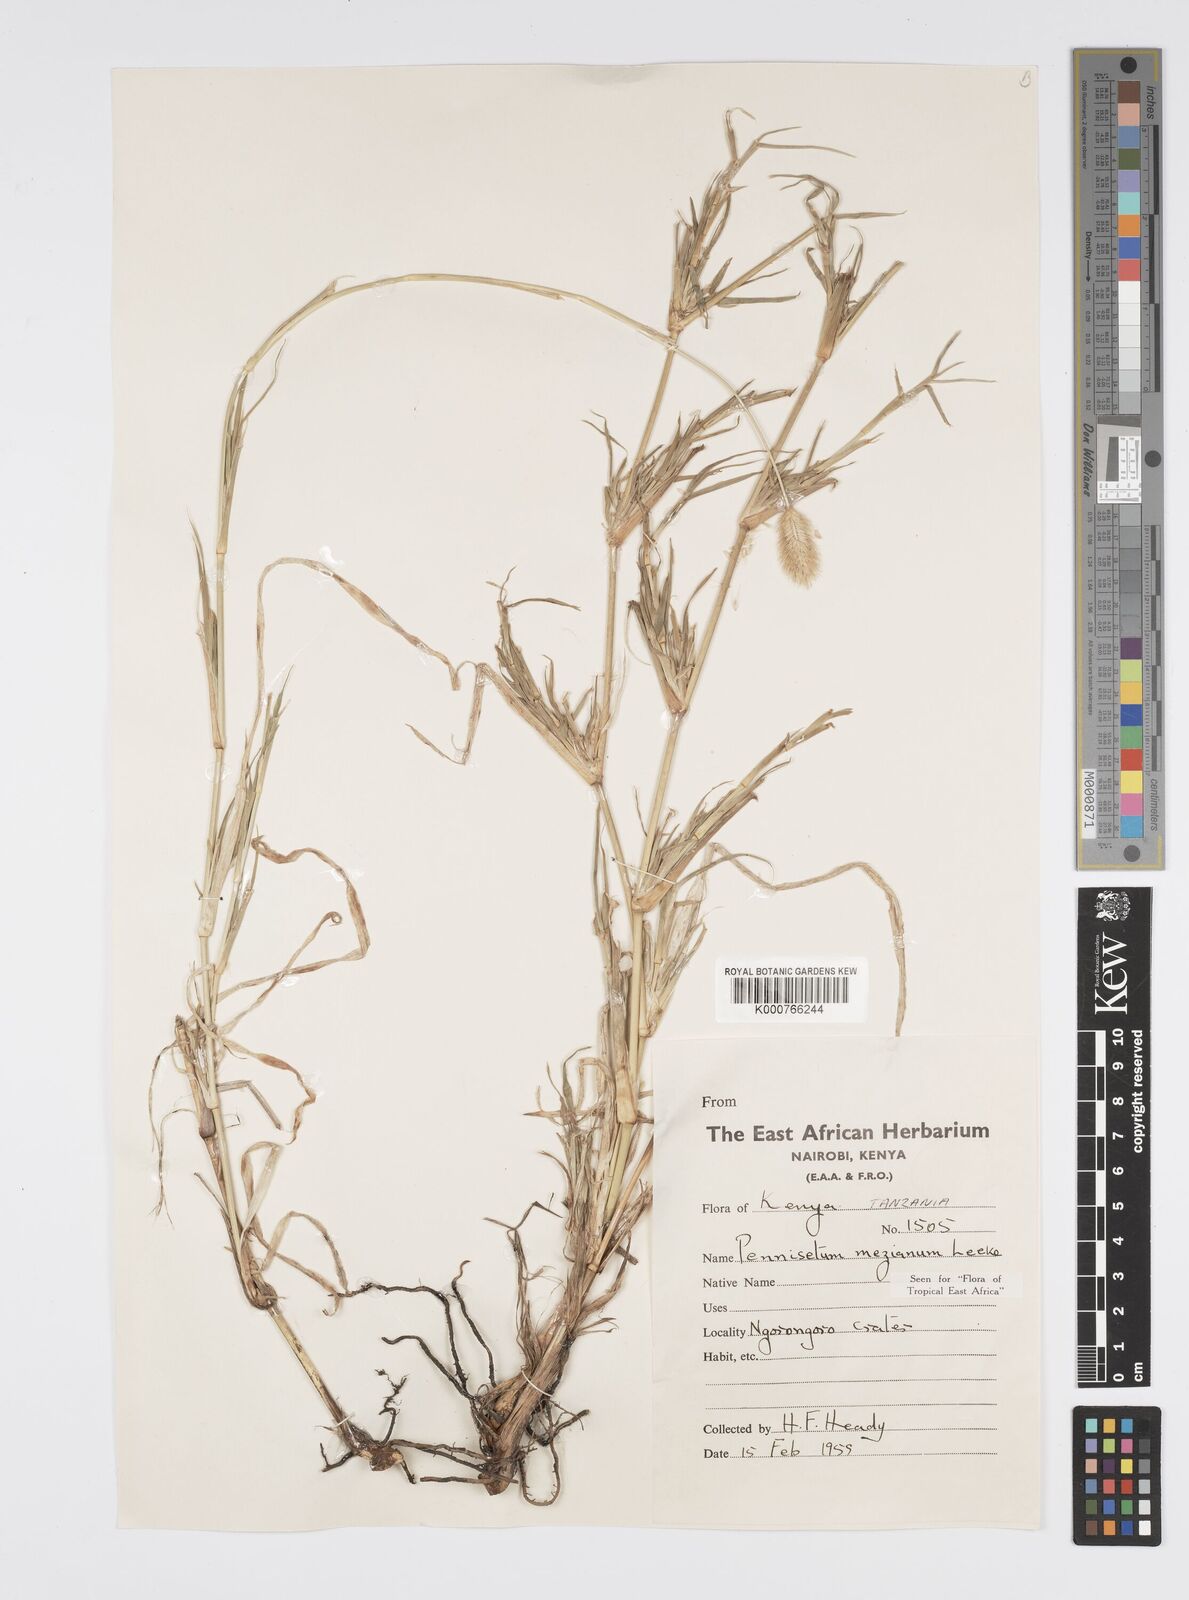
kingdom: Plantae
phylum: Tracheophyta
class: Liliopsida
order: Poales
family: Poaceae
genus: Cenchrus
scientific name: Cenchrus mezianus
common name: Bamboo grass
